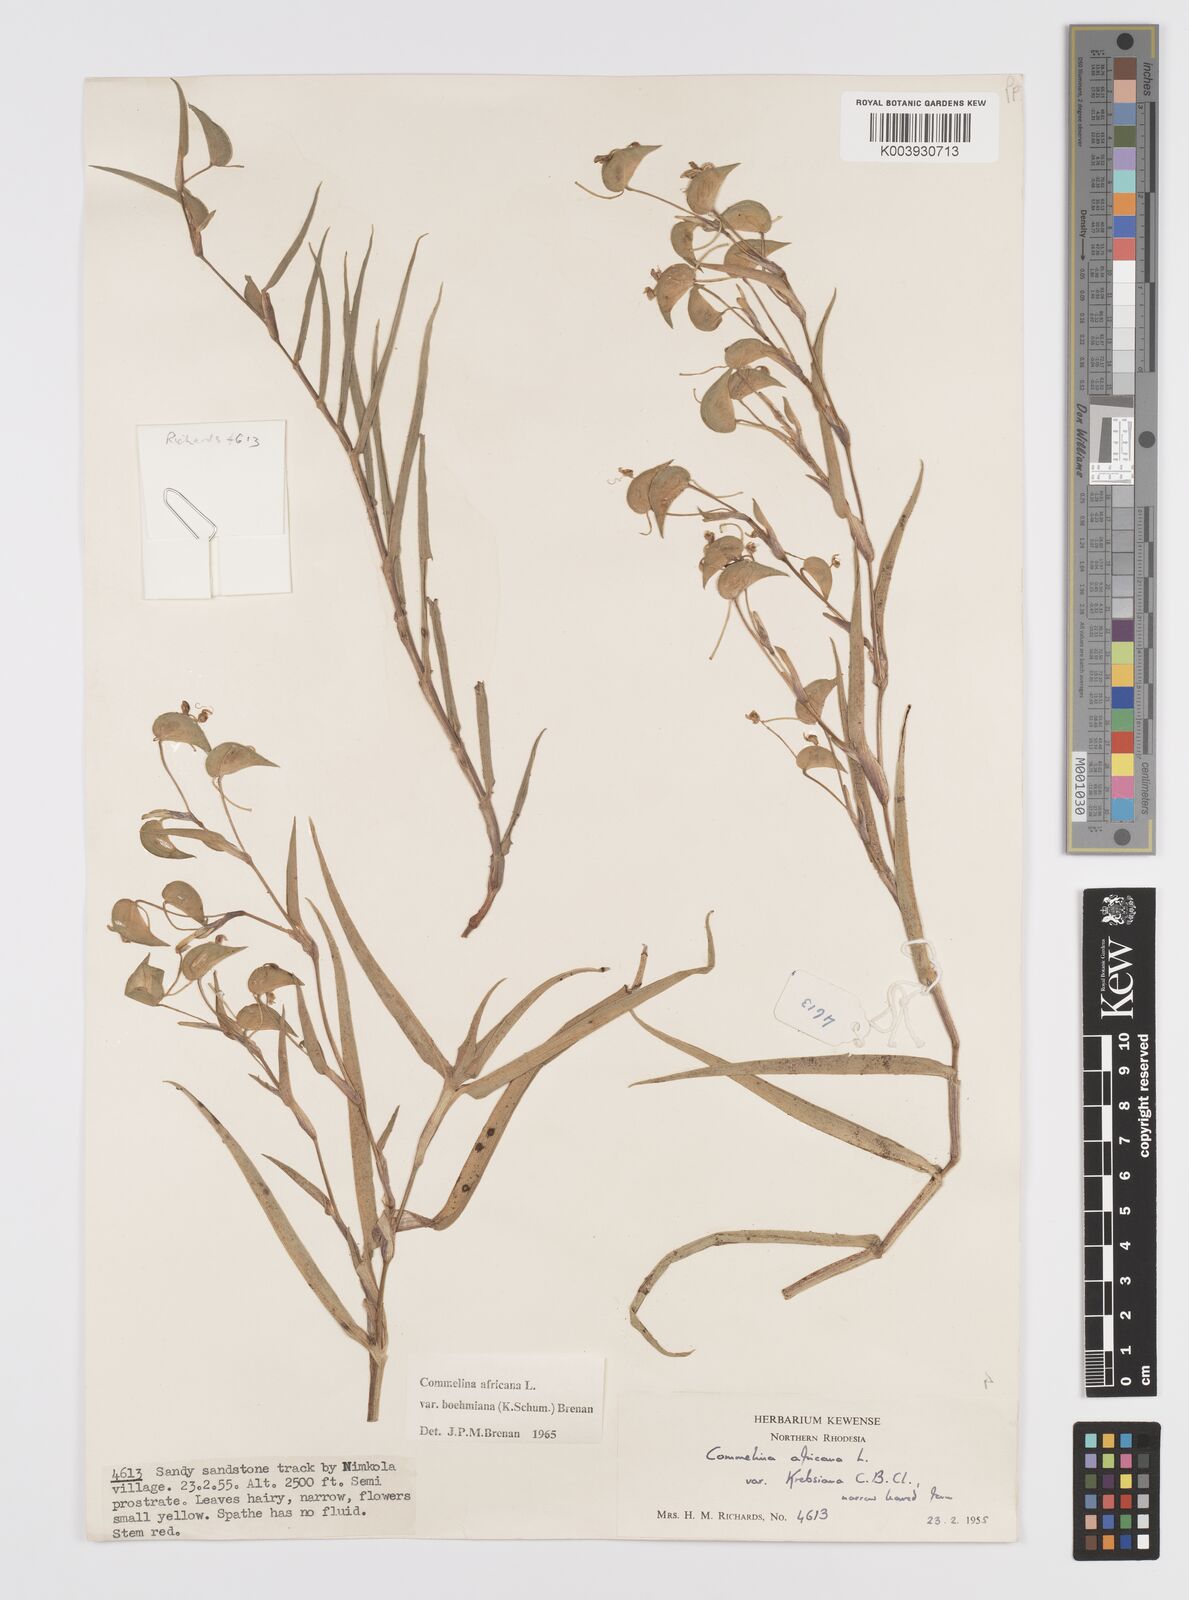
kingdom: Plantae
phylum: Tracheophyta
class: Liliopsida
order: Commelinales
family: Commelinaceae
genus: Commelina
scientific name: Commelina africana
